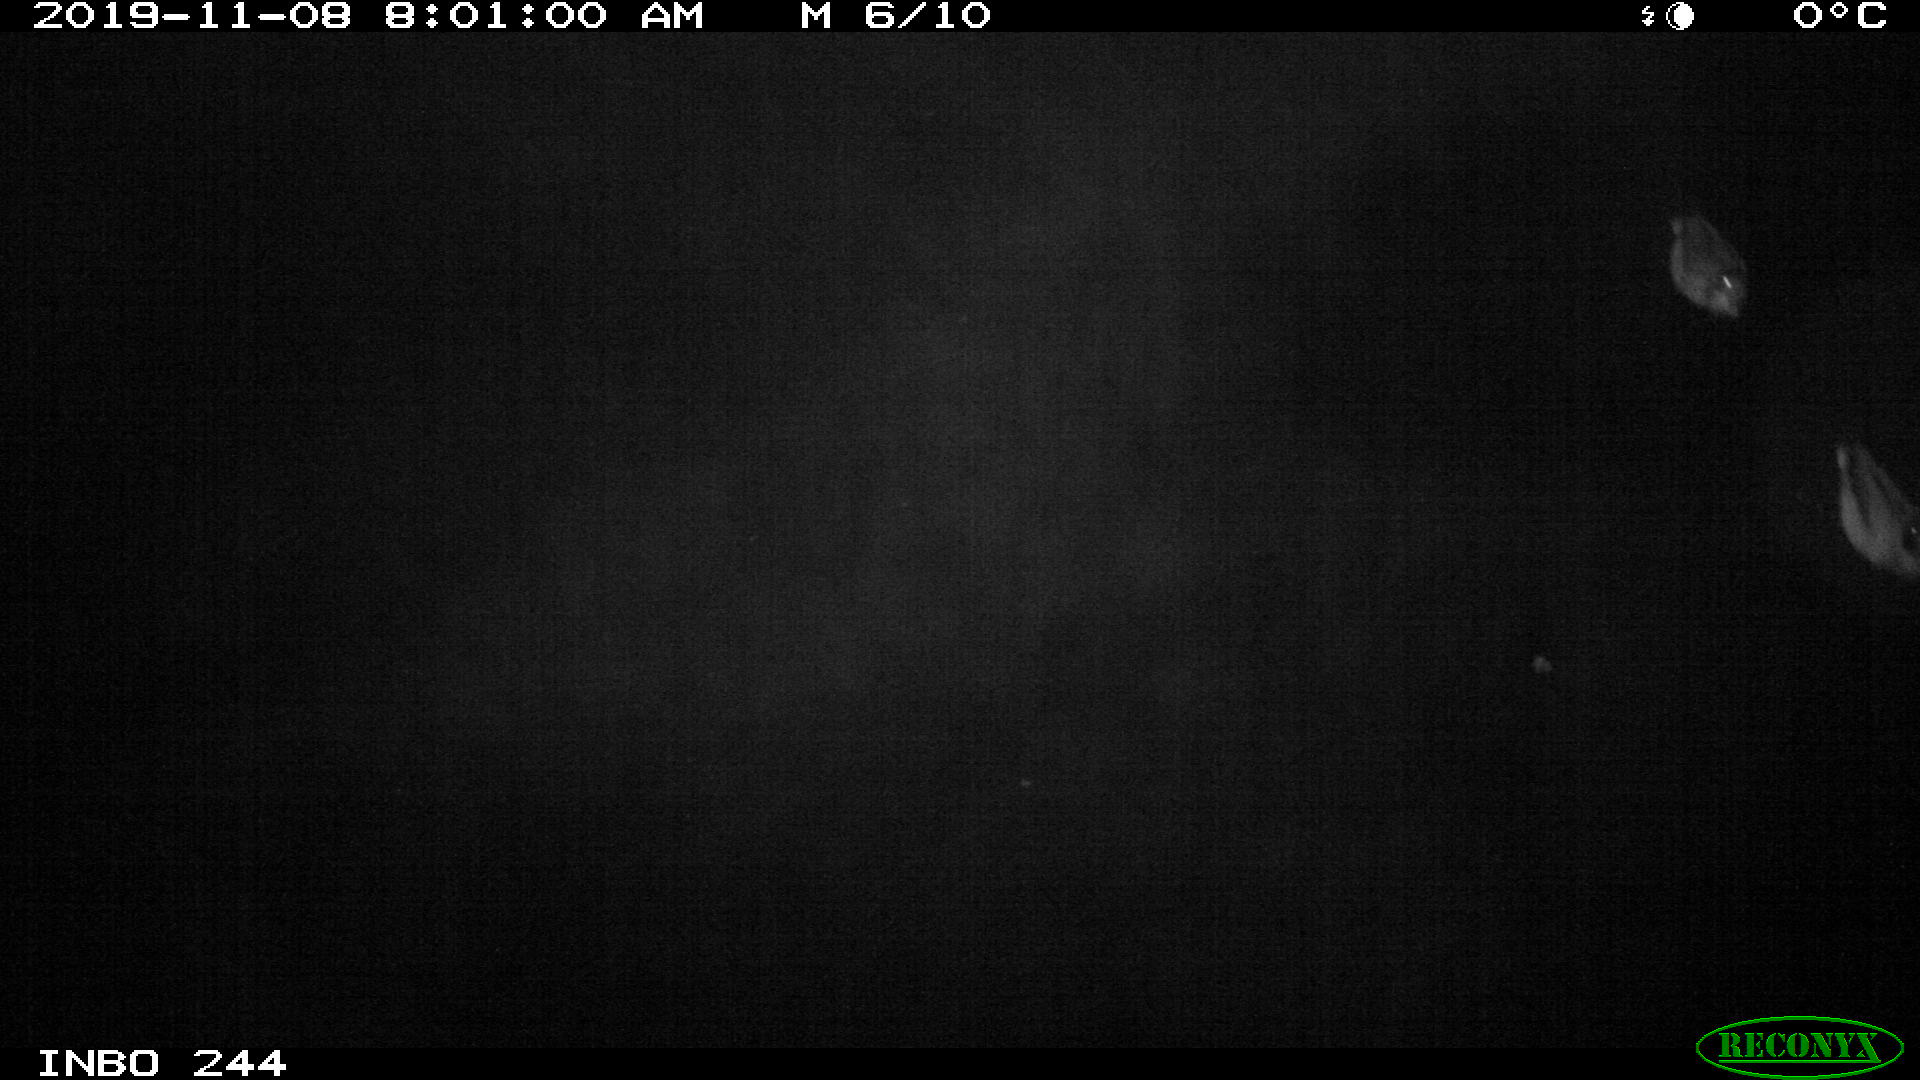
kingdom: Animalia
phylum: Chordata
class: Aves
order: Anseriformes
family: Anatidae
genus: Anas
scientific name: Anas platyrhynchos
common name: Mallard
